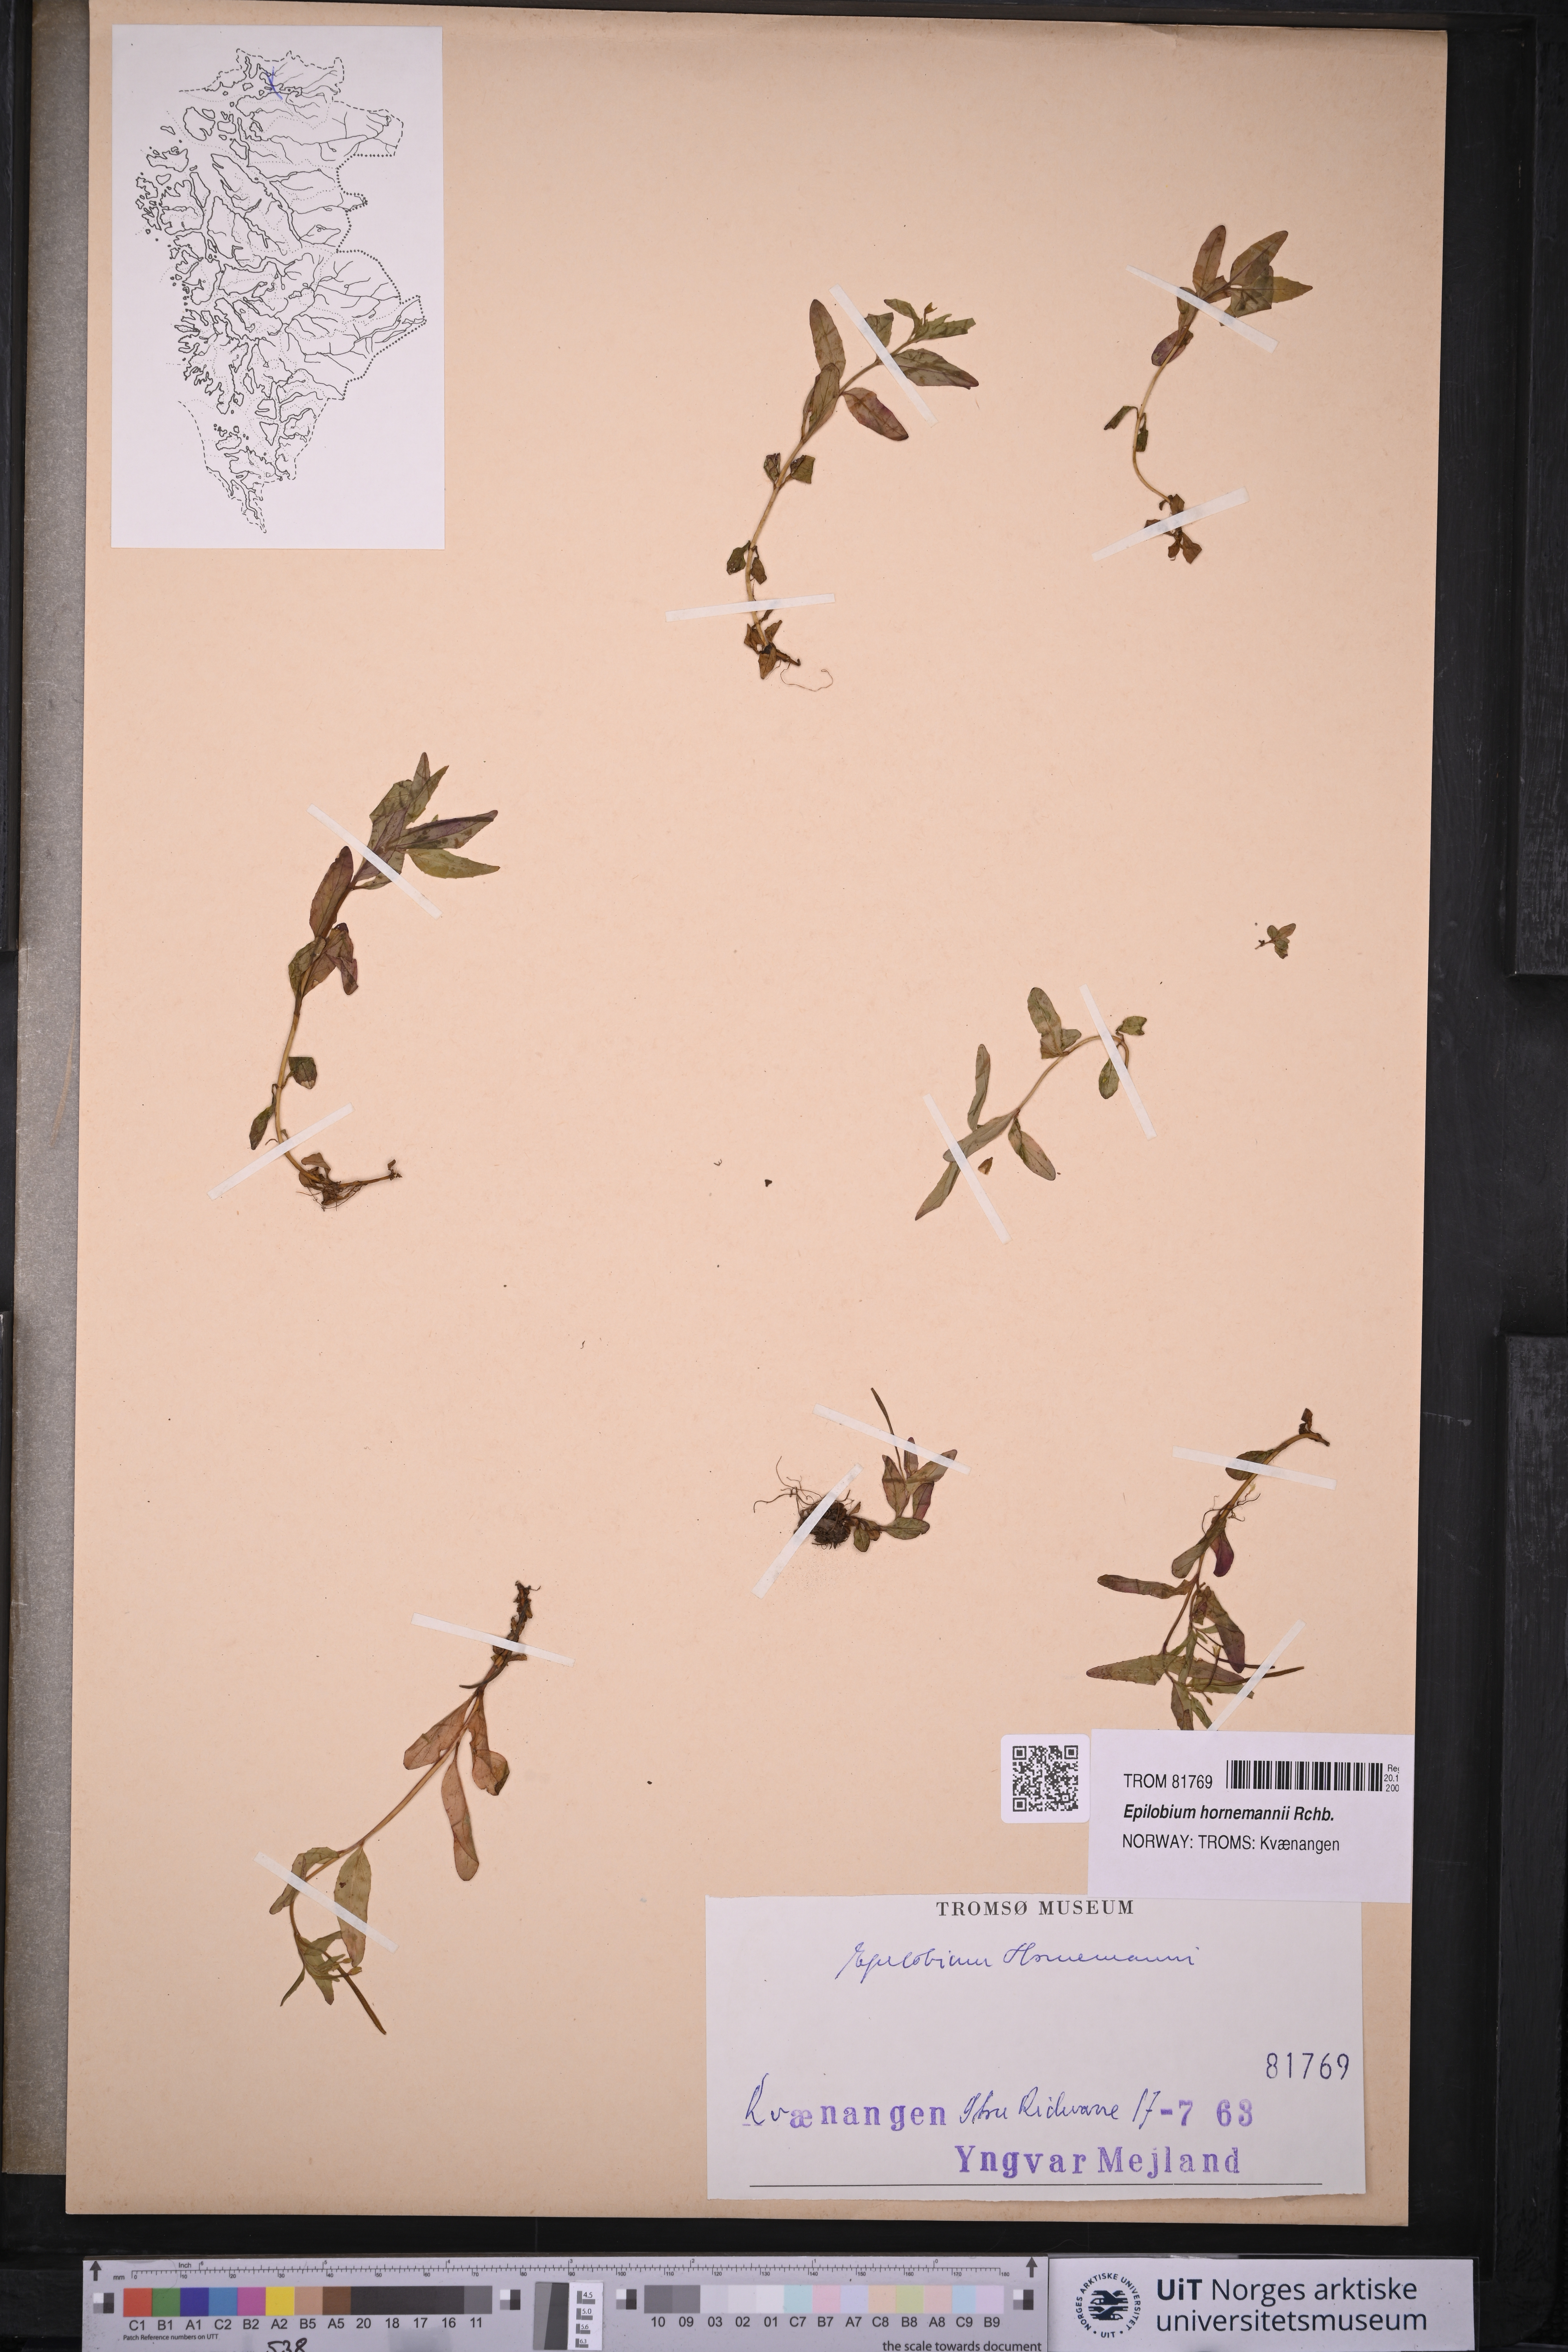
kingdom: Plantae
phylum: Tracheophyta
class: Magnoliopsida
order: Myrtales
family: Onagraceae
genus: Epilobium
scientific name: Epilobium hornemannii
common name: Hornemann's willowherb
